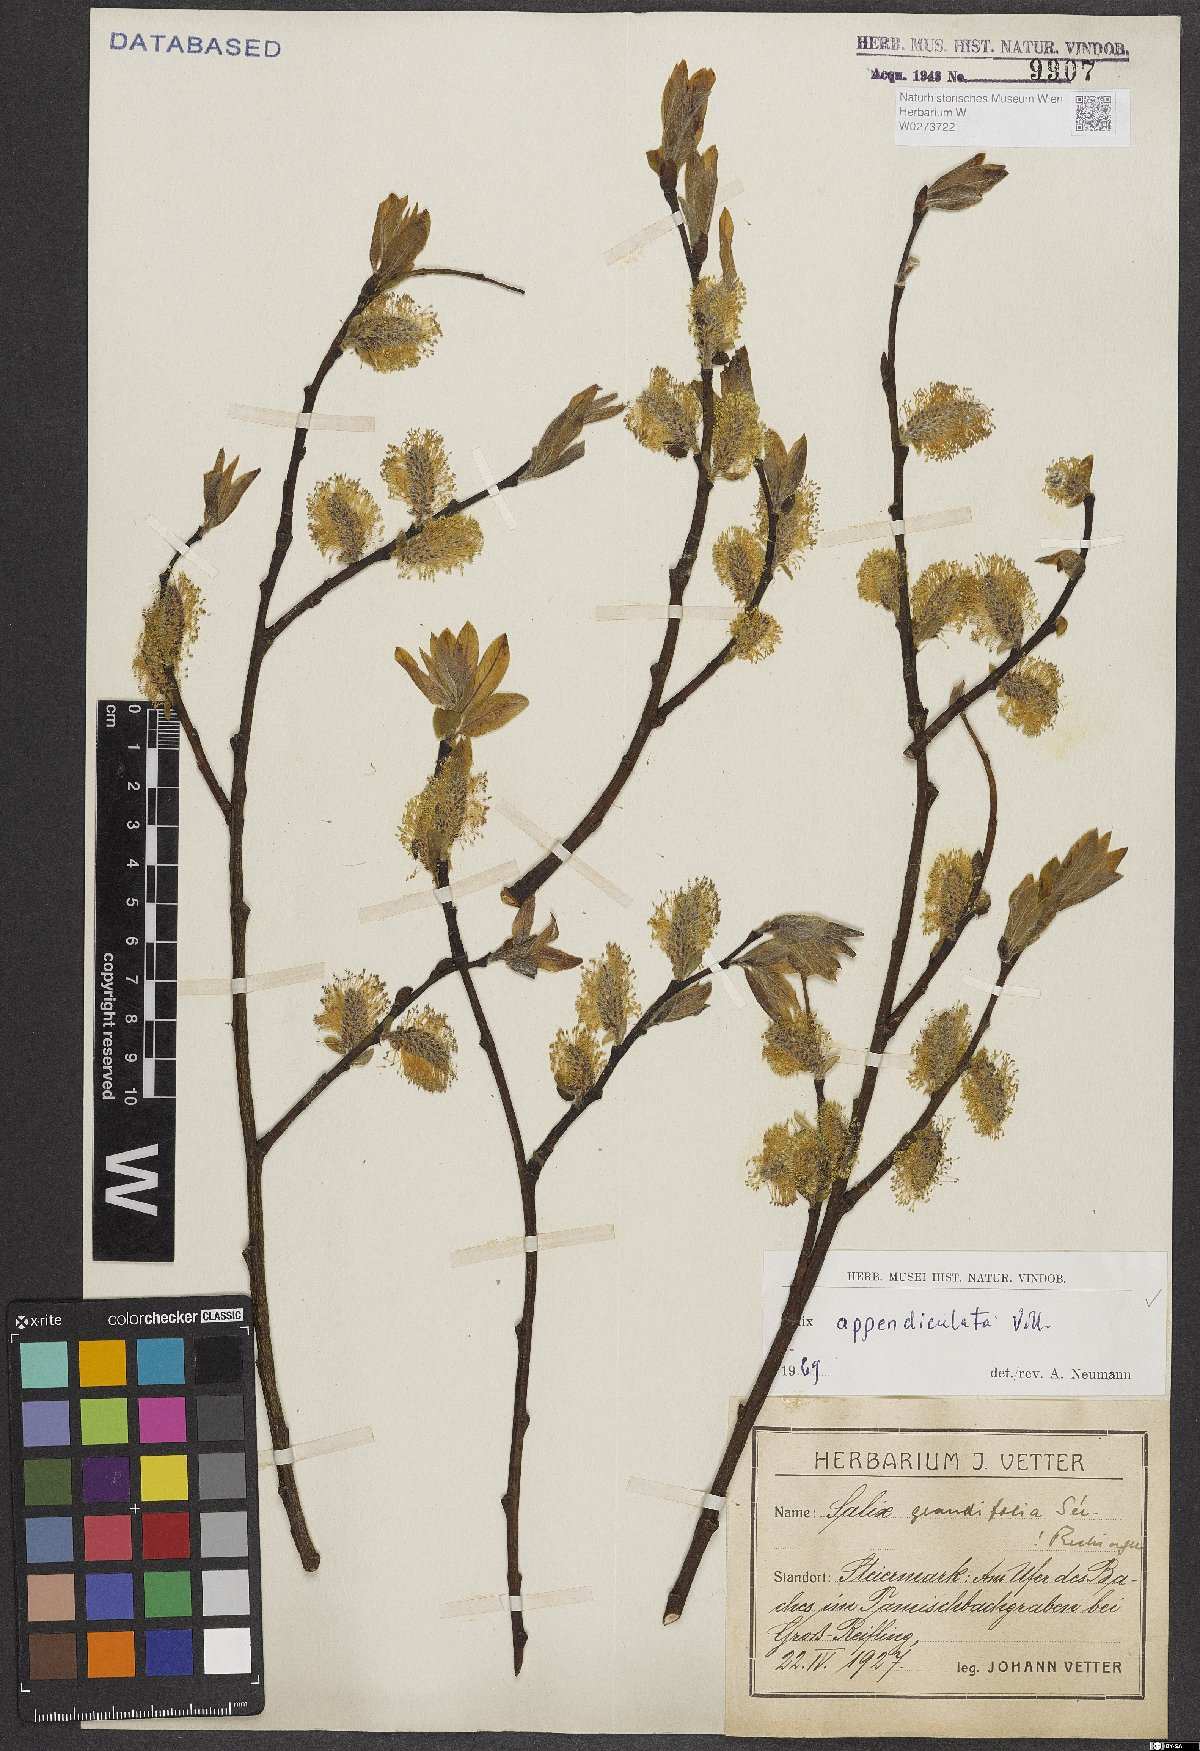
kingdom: Plantae
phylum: Tracheophyta
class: Magnoliopsida
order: Malpighiales
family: Salicaceae
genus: Salix
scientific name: Salix appendiculata
